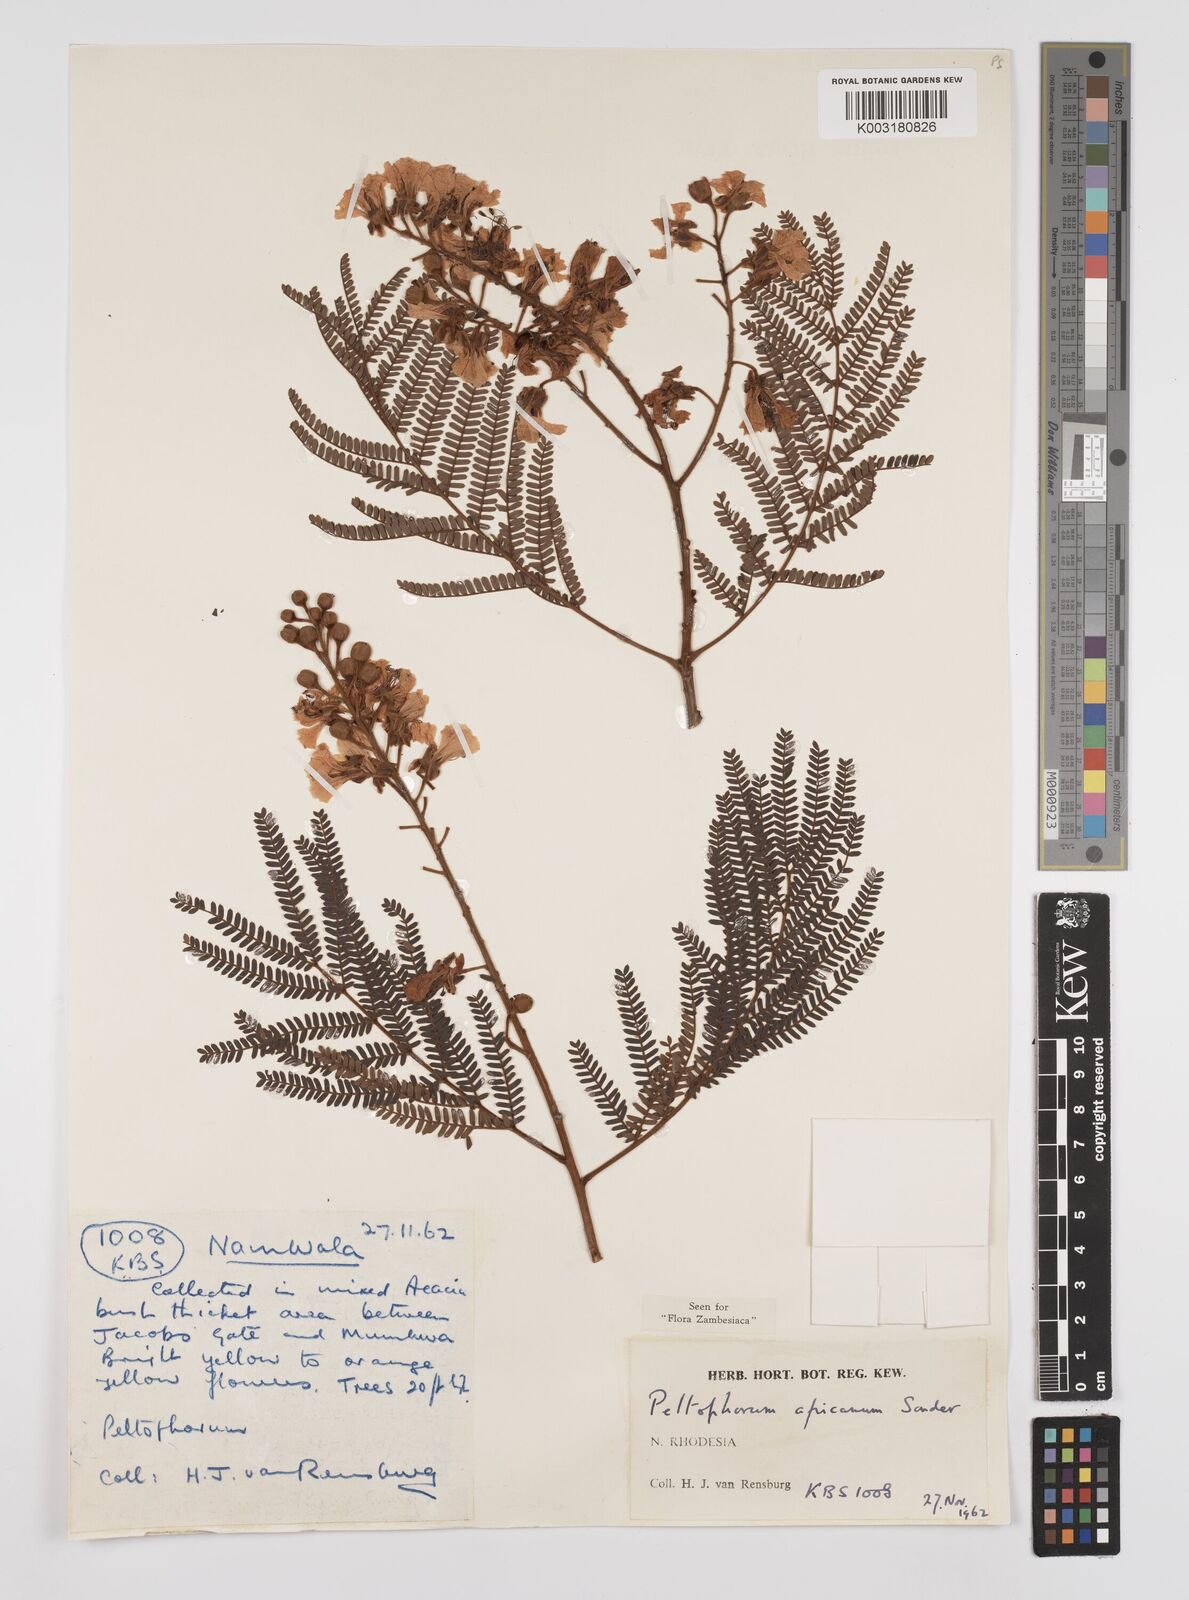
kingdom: Plantae
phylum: Tracheophyta
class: Magnoliopsida
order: Fabales
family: Fabaceae
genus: Peltophorum
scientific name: Peltophorum africanum
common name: African black wattle
